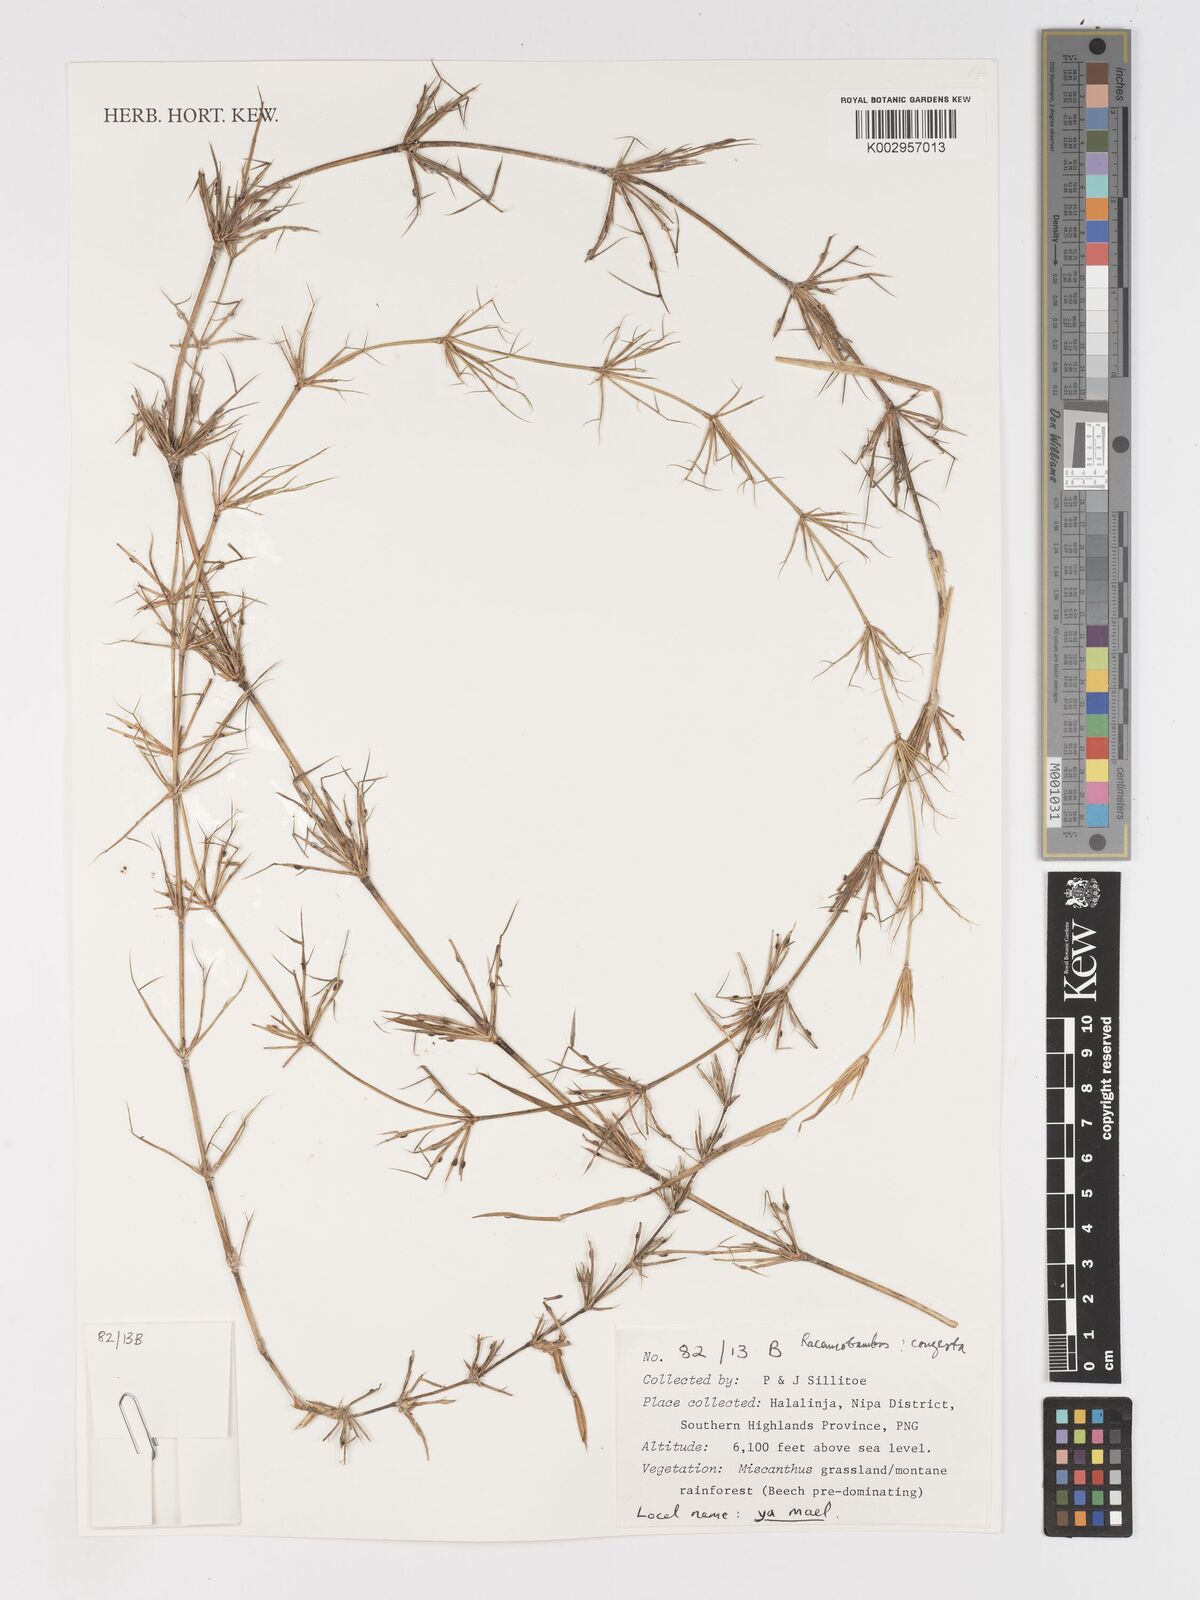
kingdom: Plantae
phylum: Tracheophyta
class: Liliopsida
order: Poales
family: Poaceae
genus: Racemobambos
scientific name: Racemobambos congesta
